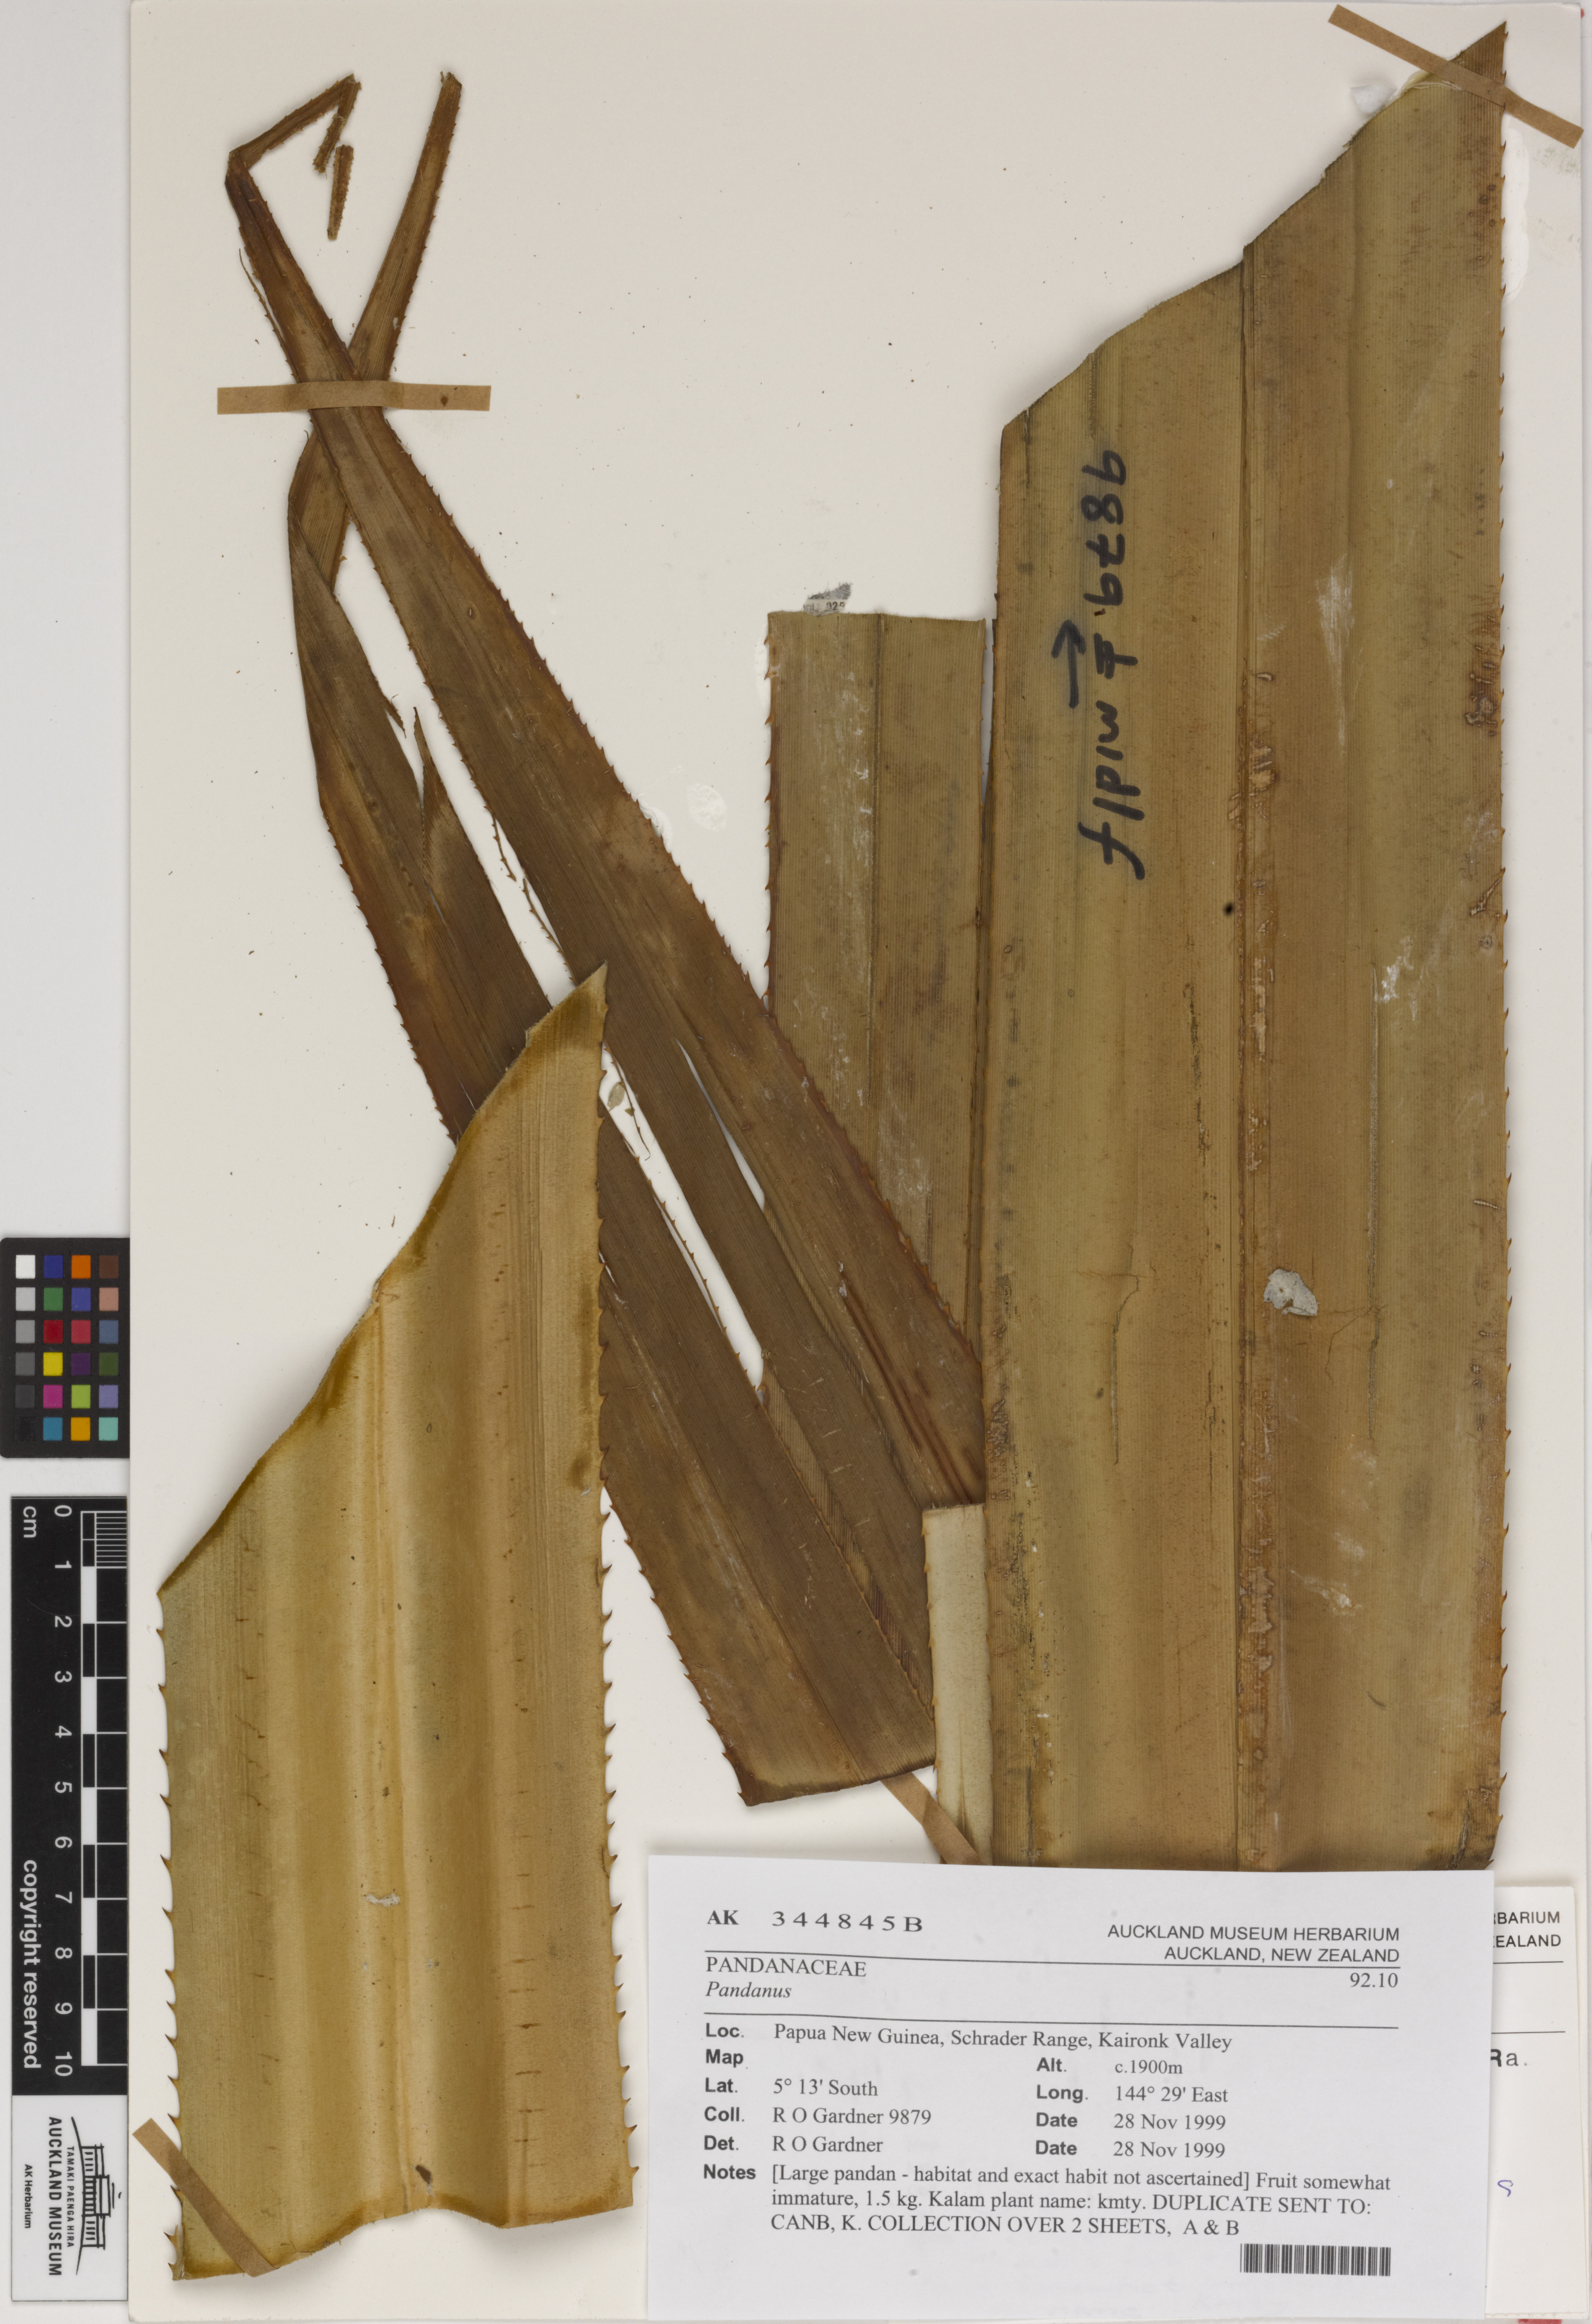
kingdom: Plantae
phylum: Tracheophyta
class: Liliopsida
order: Pandanales
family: Pandanaceae
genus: Pandanus
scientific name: Pandanus
